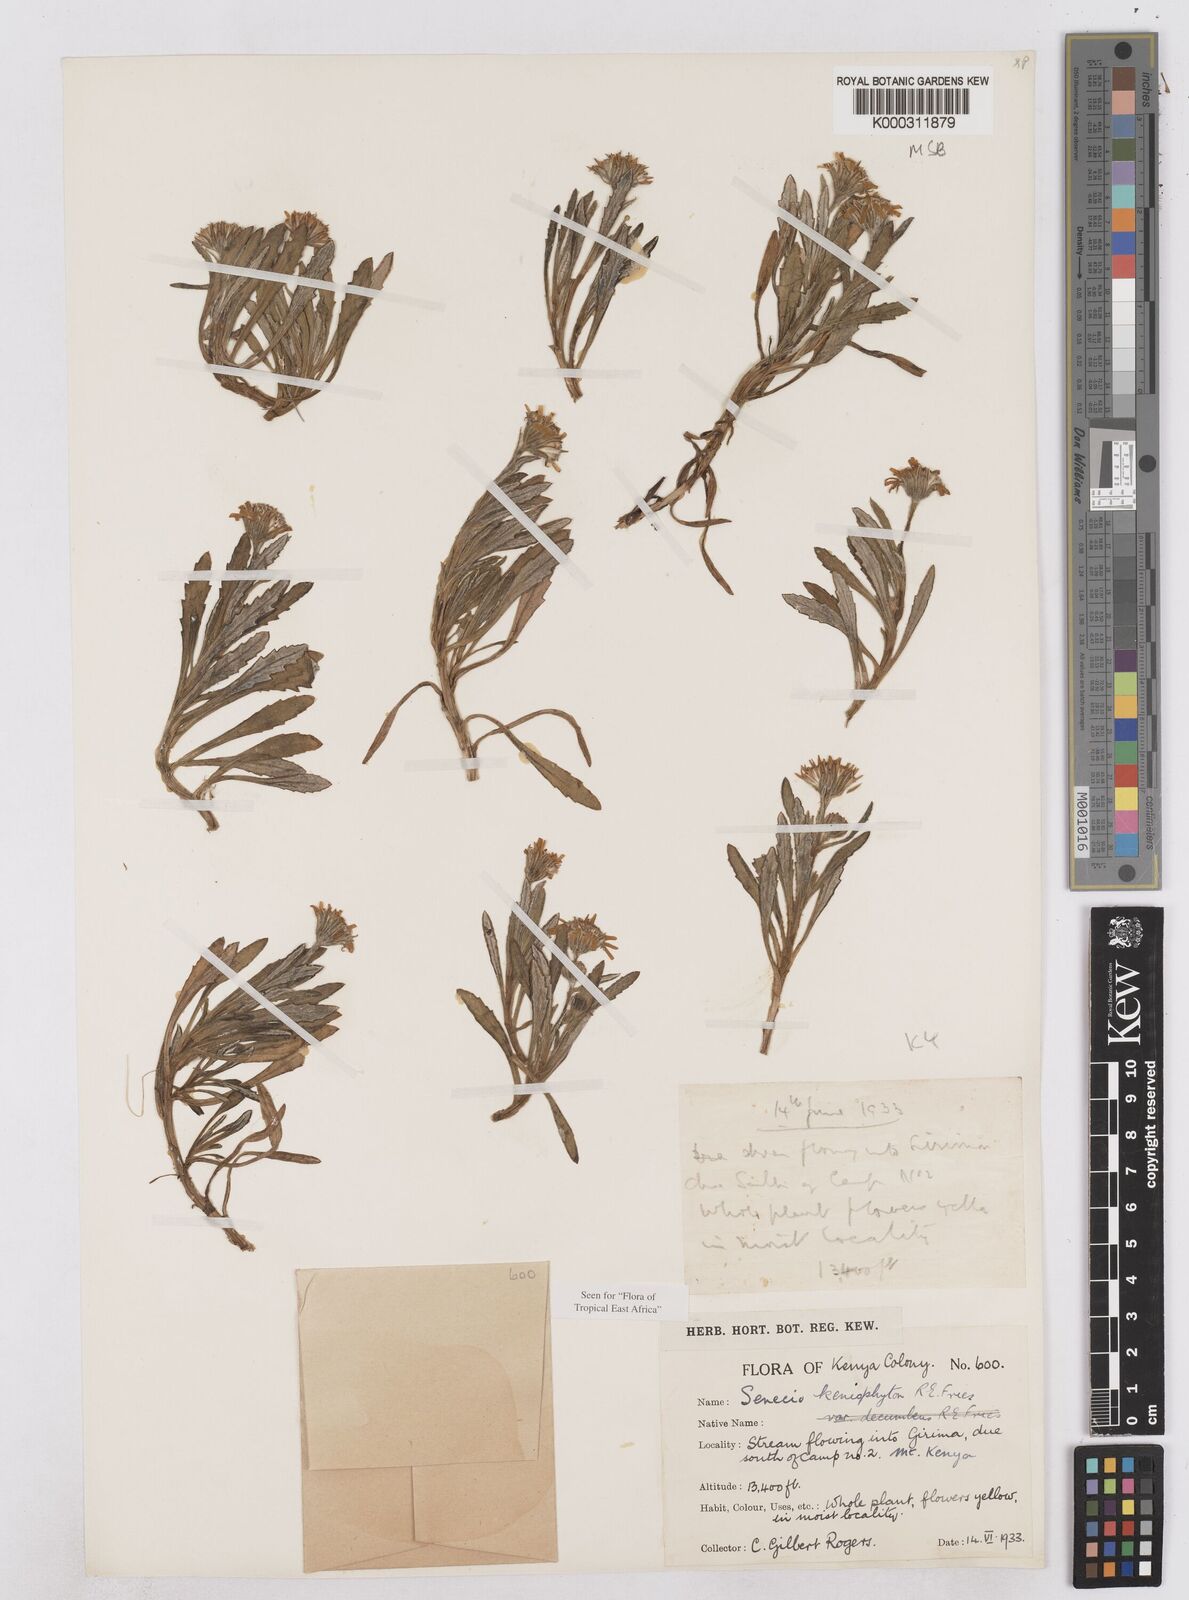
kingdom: Plantae
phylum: Tracheophyta
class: Magnoliopsida
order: Asterales
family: Asteraceae
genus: Senecio
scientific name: Senecio keniophytum
